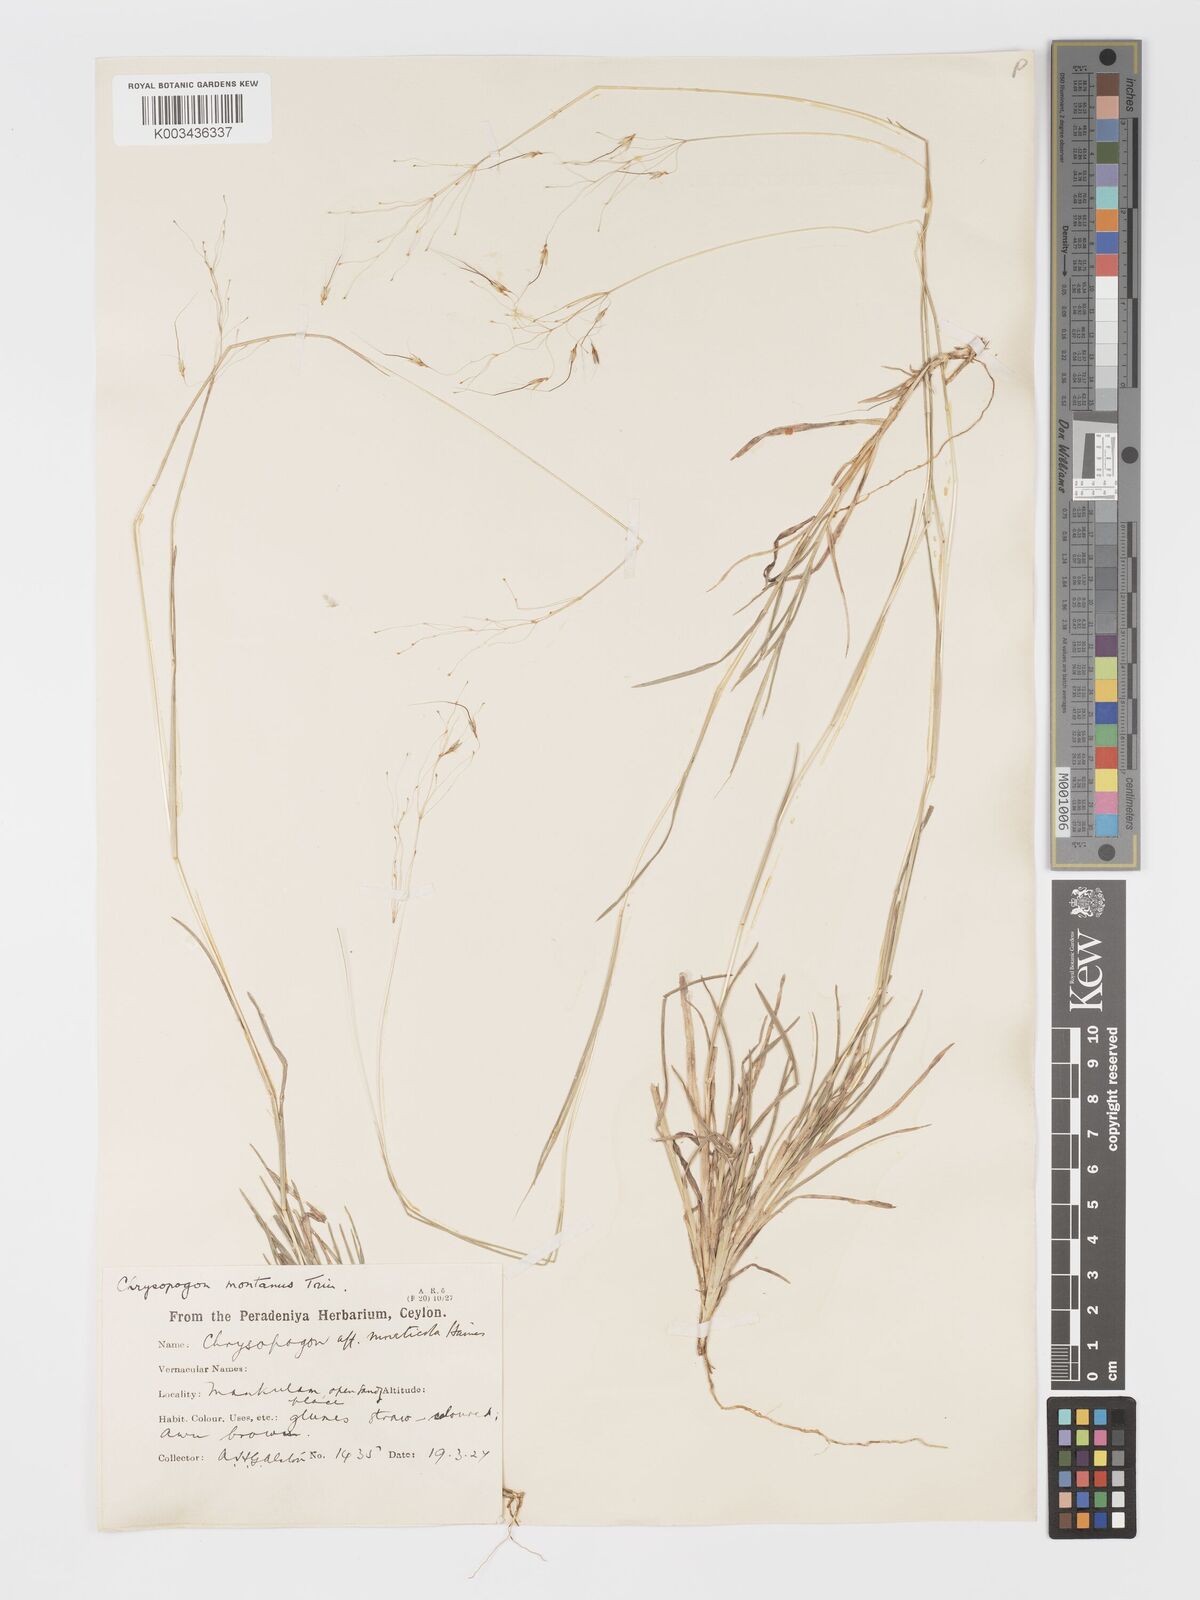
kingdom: Plantae
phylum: Tracheophyta
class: Liliopsida
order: Poales
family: Poaceae
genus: Chrysopogon
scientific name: Chrysopogon fulvus
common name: Red false beardgrass
